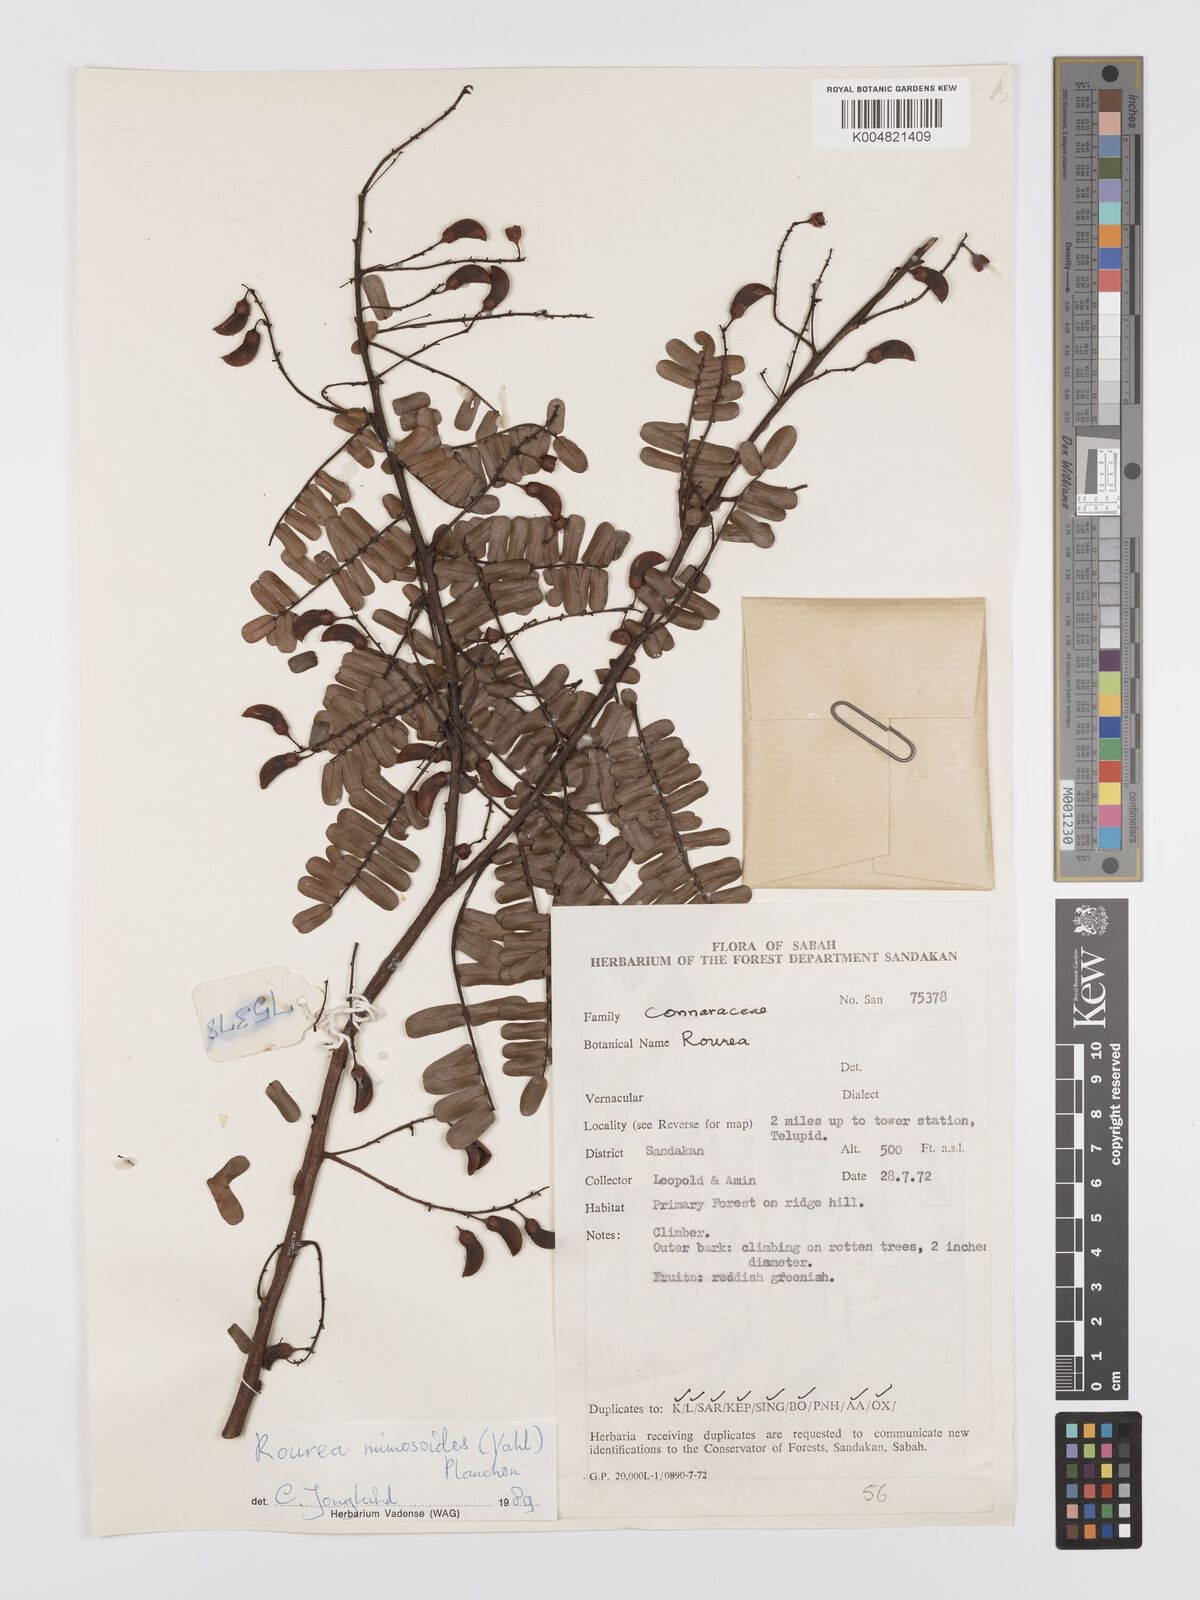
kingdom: Plantae
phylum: Tracheophyta
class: Magnoliopsida
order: Oxalidales
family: Connaraceae
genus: Rourea
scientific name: Rourea mimosoides
